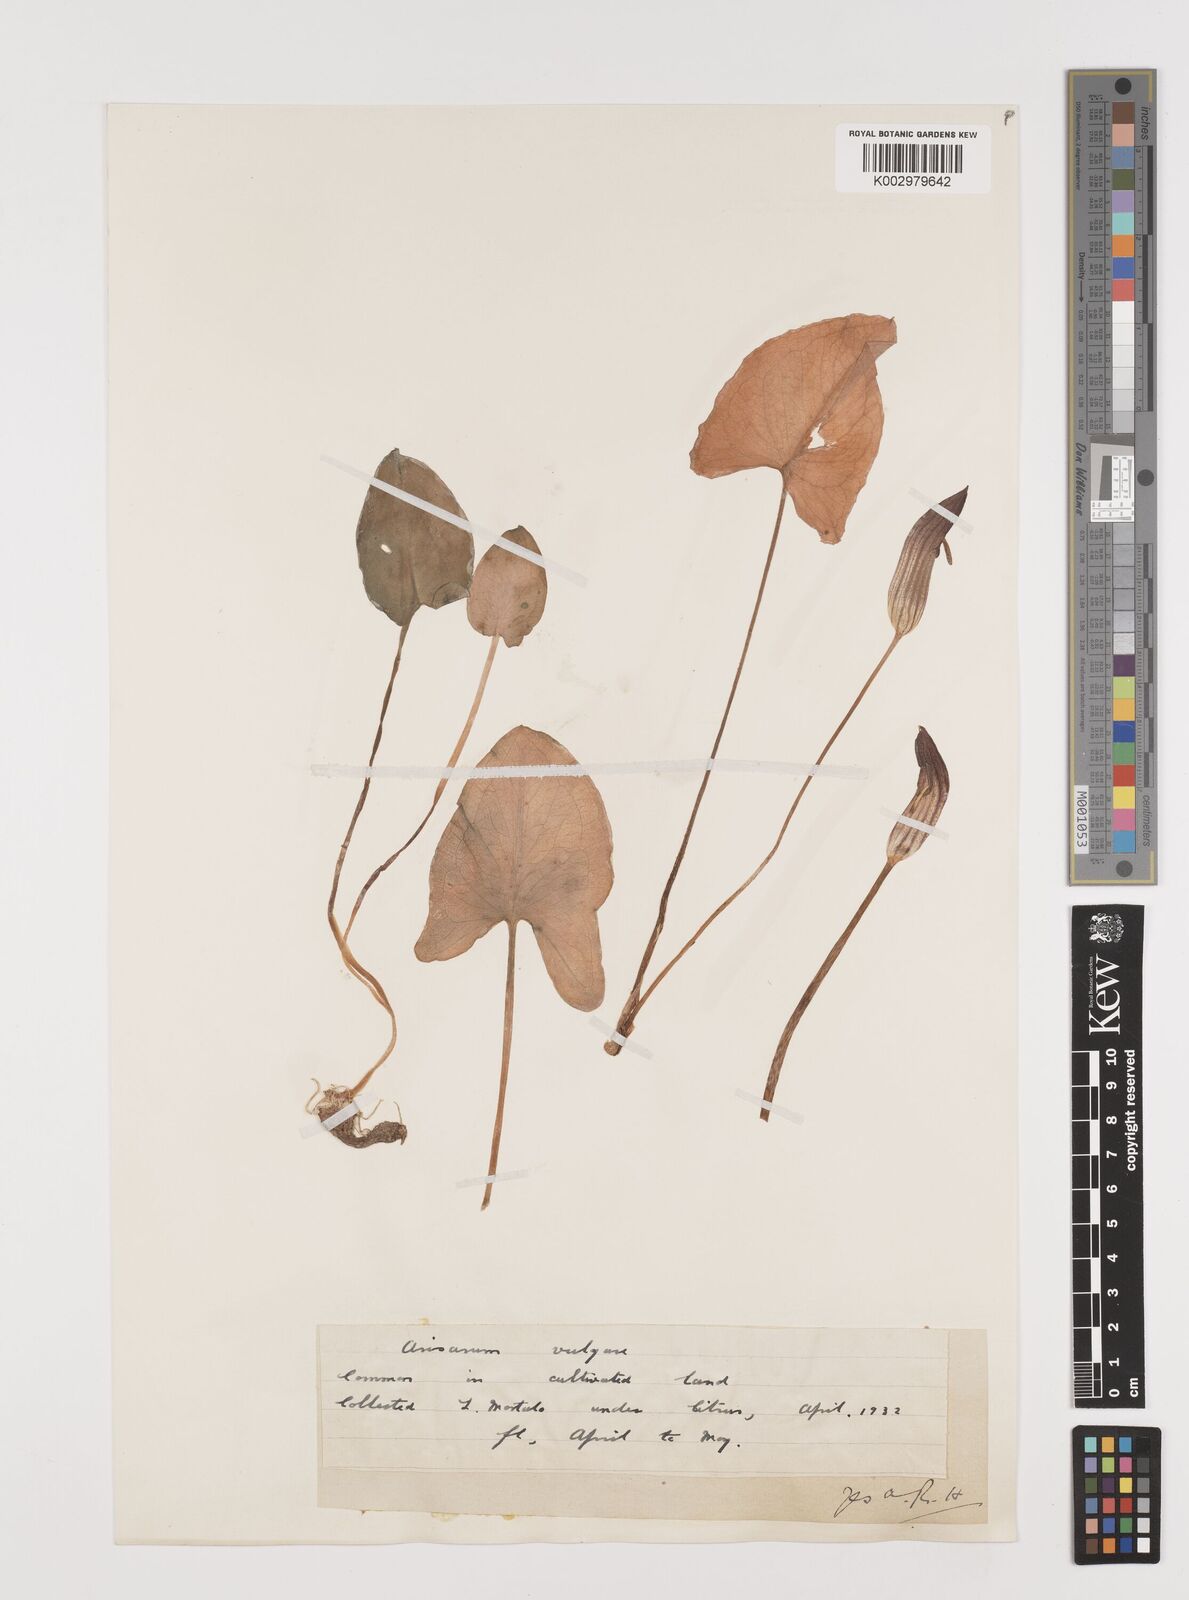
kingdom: Plantae
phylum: Tracheophyta
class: Liliopsida
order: Alismatales
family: Araceae
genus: Arisarum
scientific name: Arisarum vulgare
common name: Common arisarum
